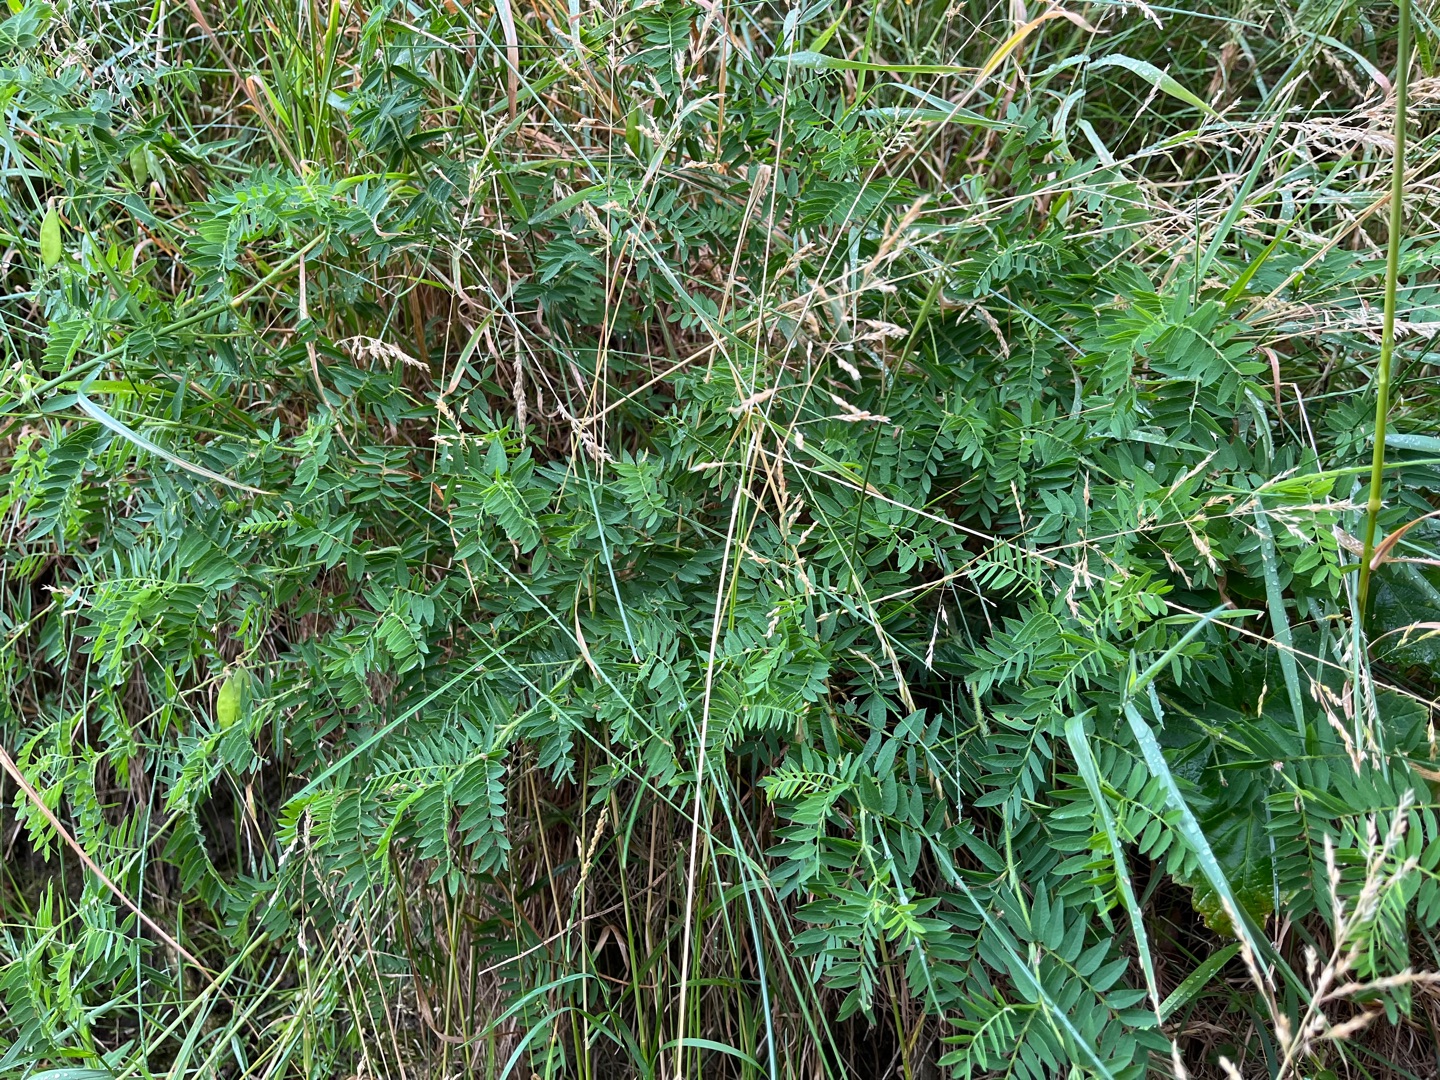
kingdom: Plantae
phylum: Tracheophyta
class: Magnoliopsida
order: Fabales
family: Fabaceae
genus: Vicia
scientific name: Vicia orobus
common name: Lyng-vikke
